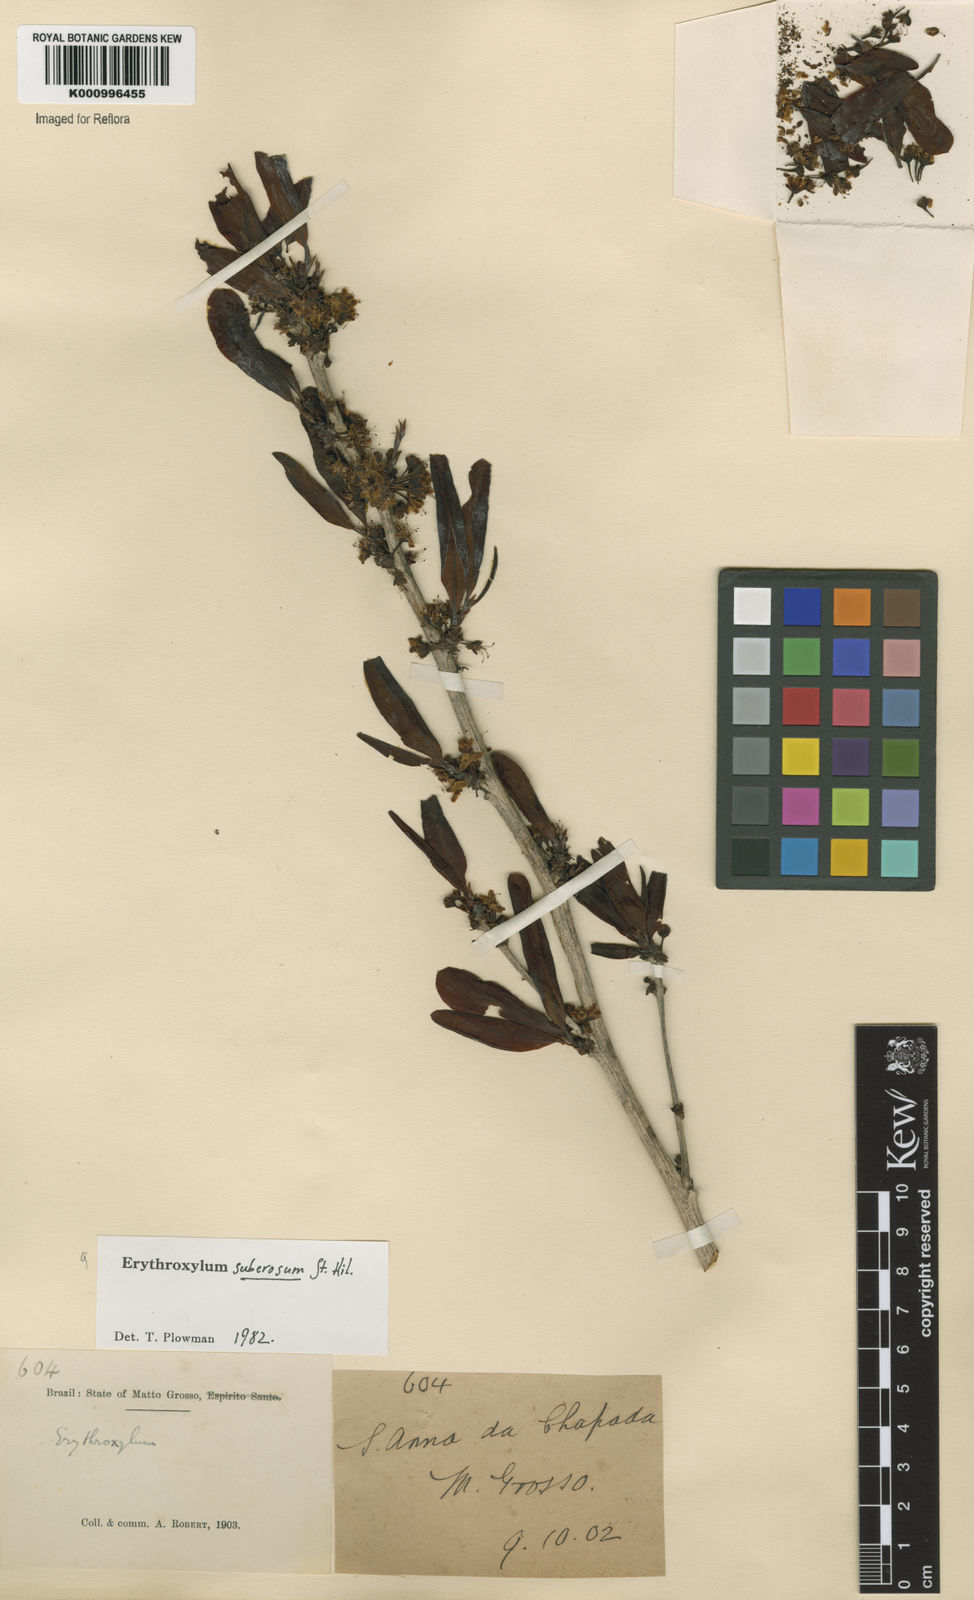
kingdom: Plantae
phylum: Tracheophyta
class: Magnoliopsida
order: Malpighiales
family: Erythroxylaceae
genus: Erythroxylum
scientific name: Erythroxylum suberosum
